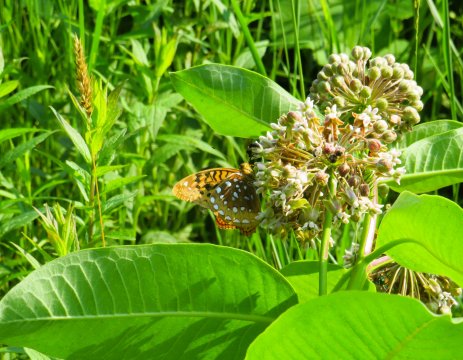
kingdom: Animalia
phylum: Arthropoda
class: Insecta
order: Lepidoptera
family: Nymphalidae
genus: Speyeria
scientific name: Speyeria cybele
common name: Great Spangled Fritillary
